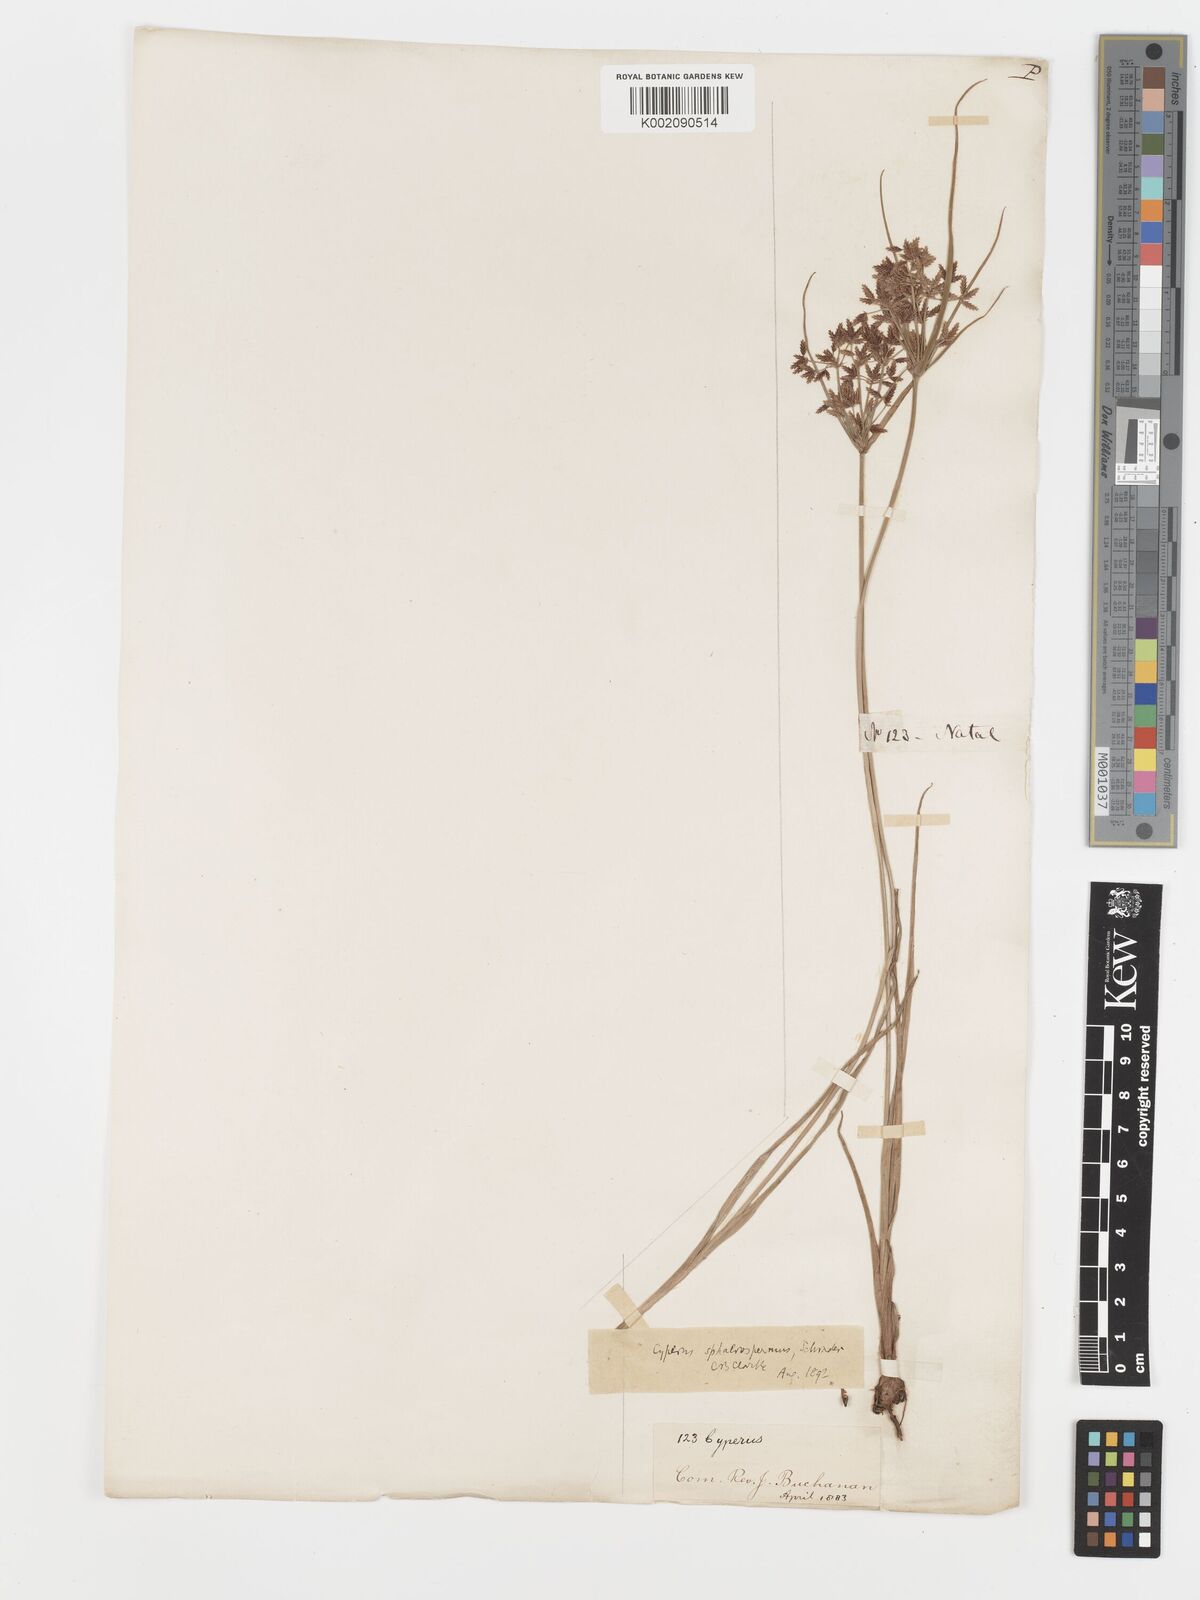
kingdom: Plantae
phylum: Tracheophyta
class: Liliopsida
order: Poales
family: Cyperaceae
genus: Cyperus
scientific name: Cyperus sphaerospermus
